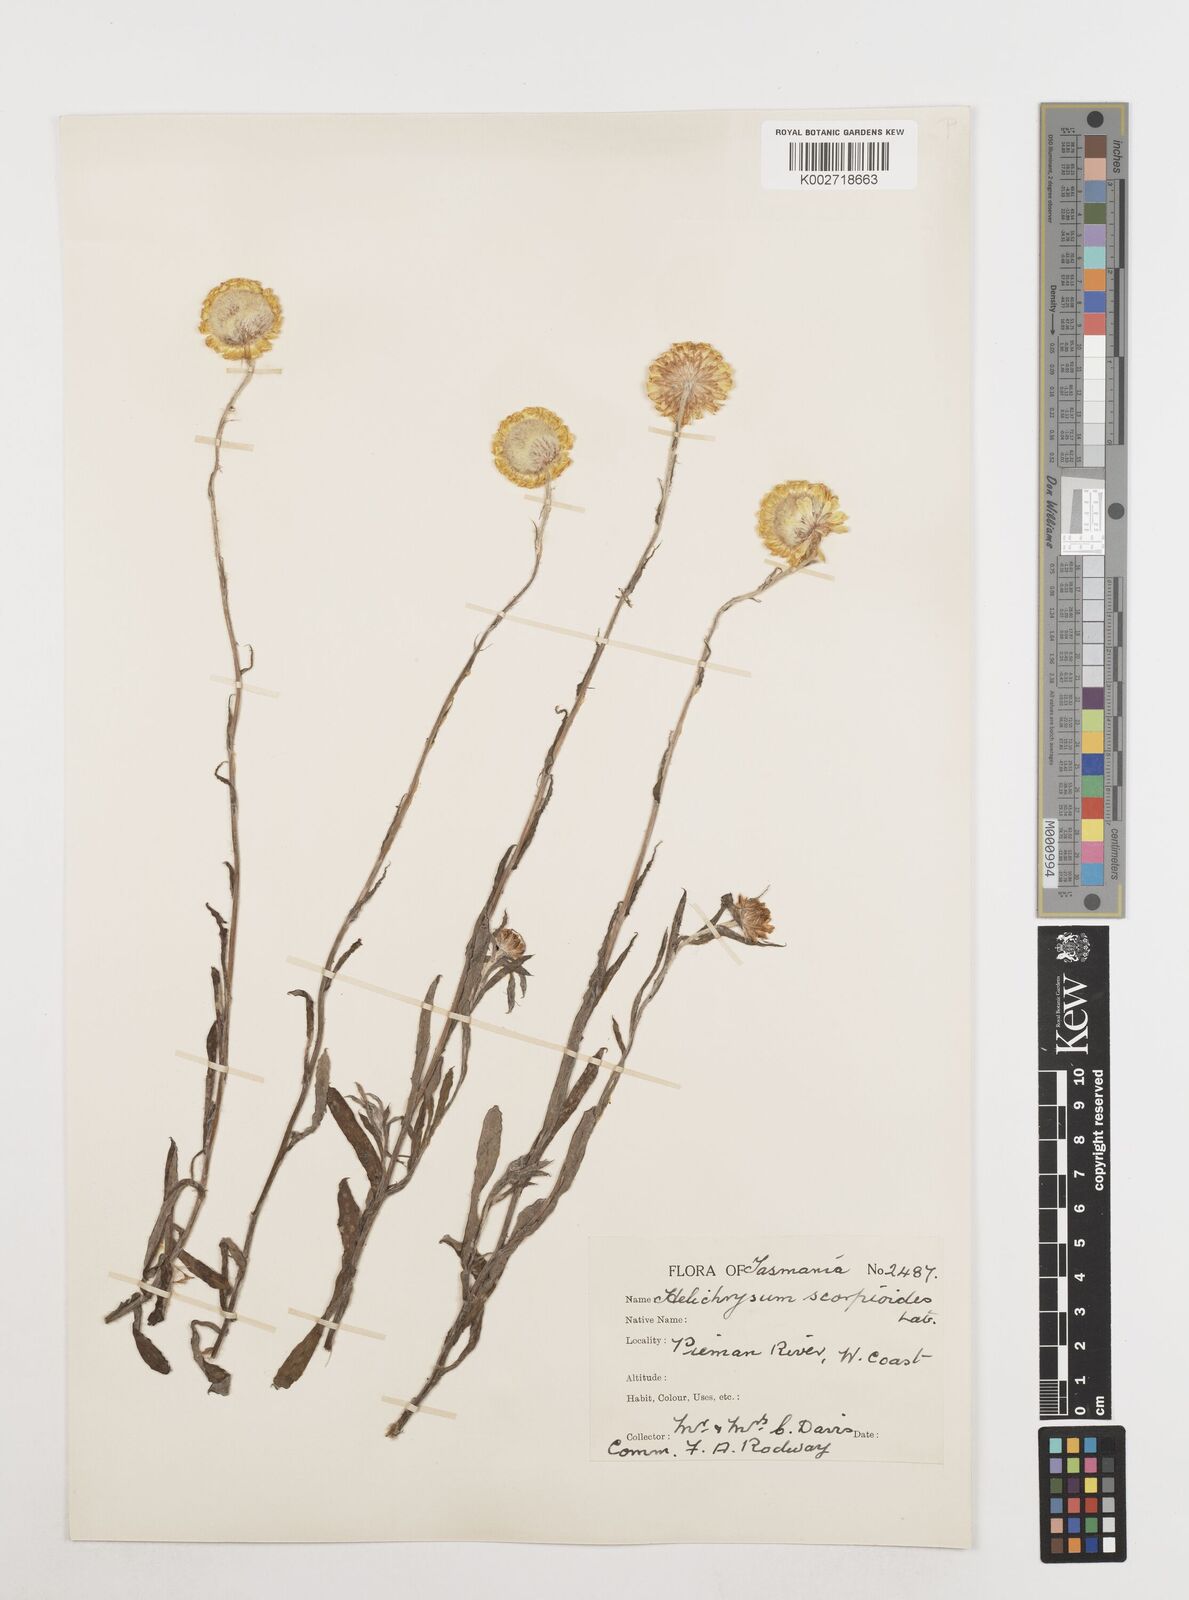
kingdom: Plantae
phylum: Tracheophyta
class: Magnoliopsida
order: Asterales
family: Asteraceae
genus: Coronidium
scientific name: Coronidium scorpioides
